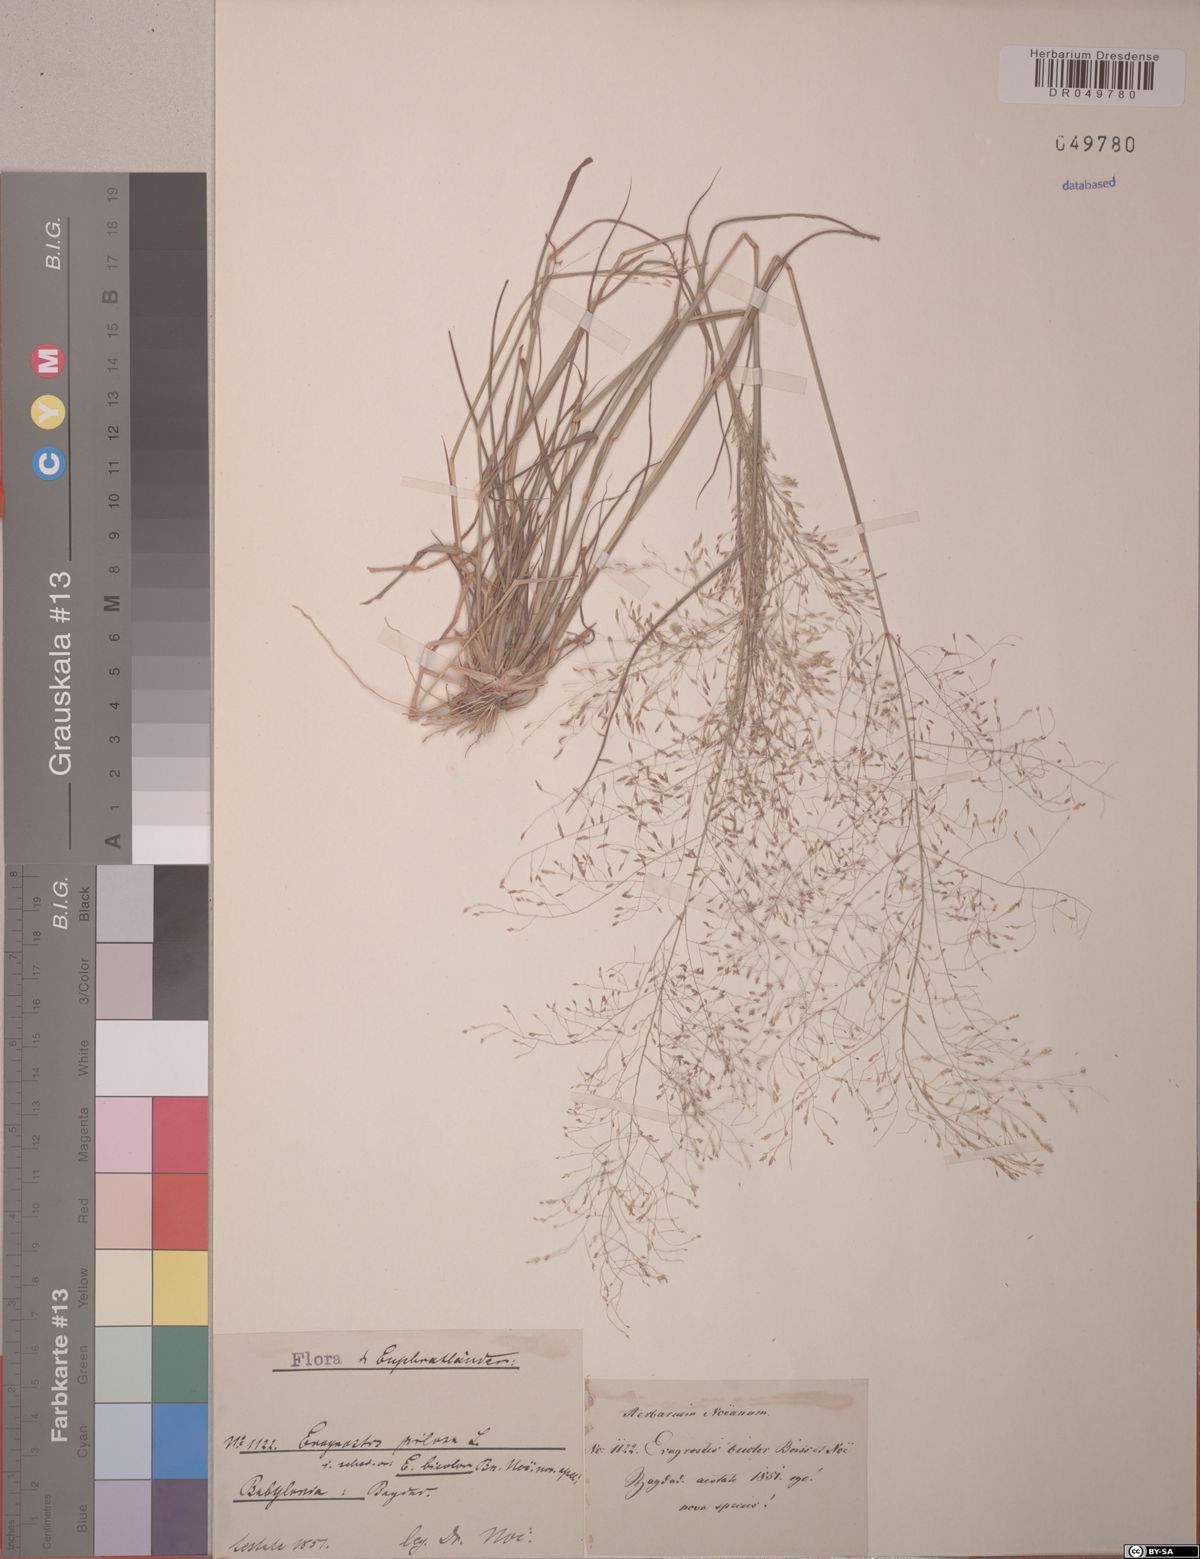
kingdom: Plantae
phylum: Tracheophyta
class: Liliopsida
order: Poales
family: Poaceae
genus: Eragrostis
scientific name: Eragrostis pilosa
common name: Indian lovegrass
